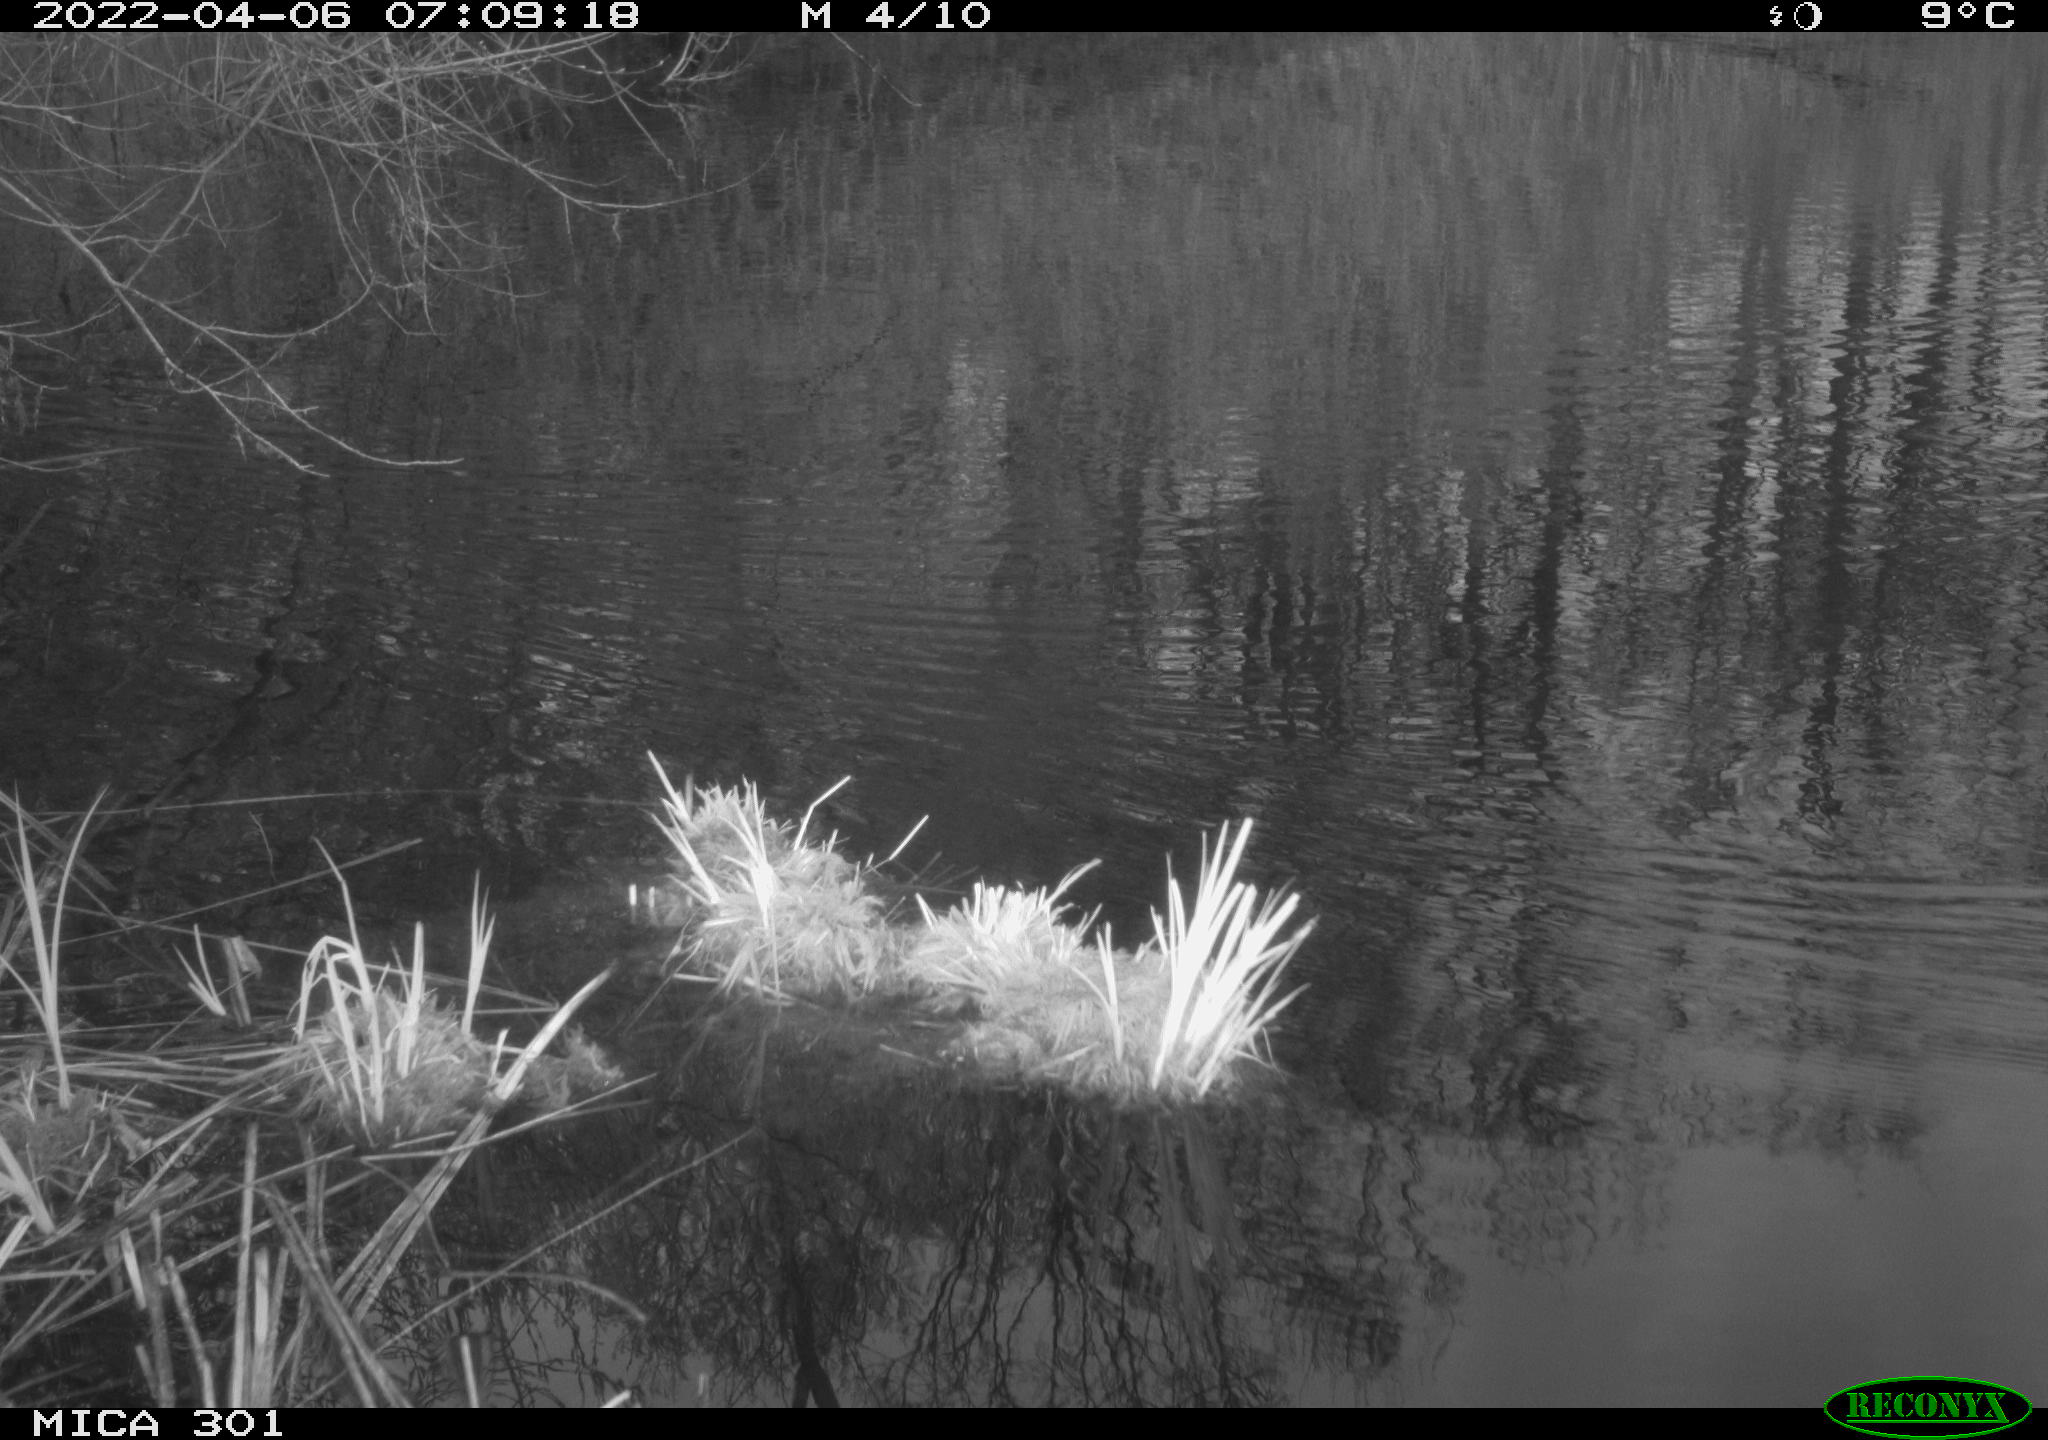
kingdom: Animalia
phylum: Chordata
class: Aves
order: Anseriformes
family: Anatidae
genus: Anas
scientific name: Anas platyrhynchos
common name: Mallard
